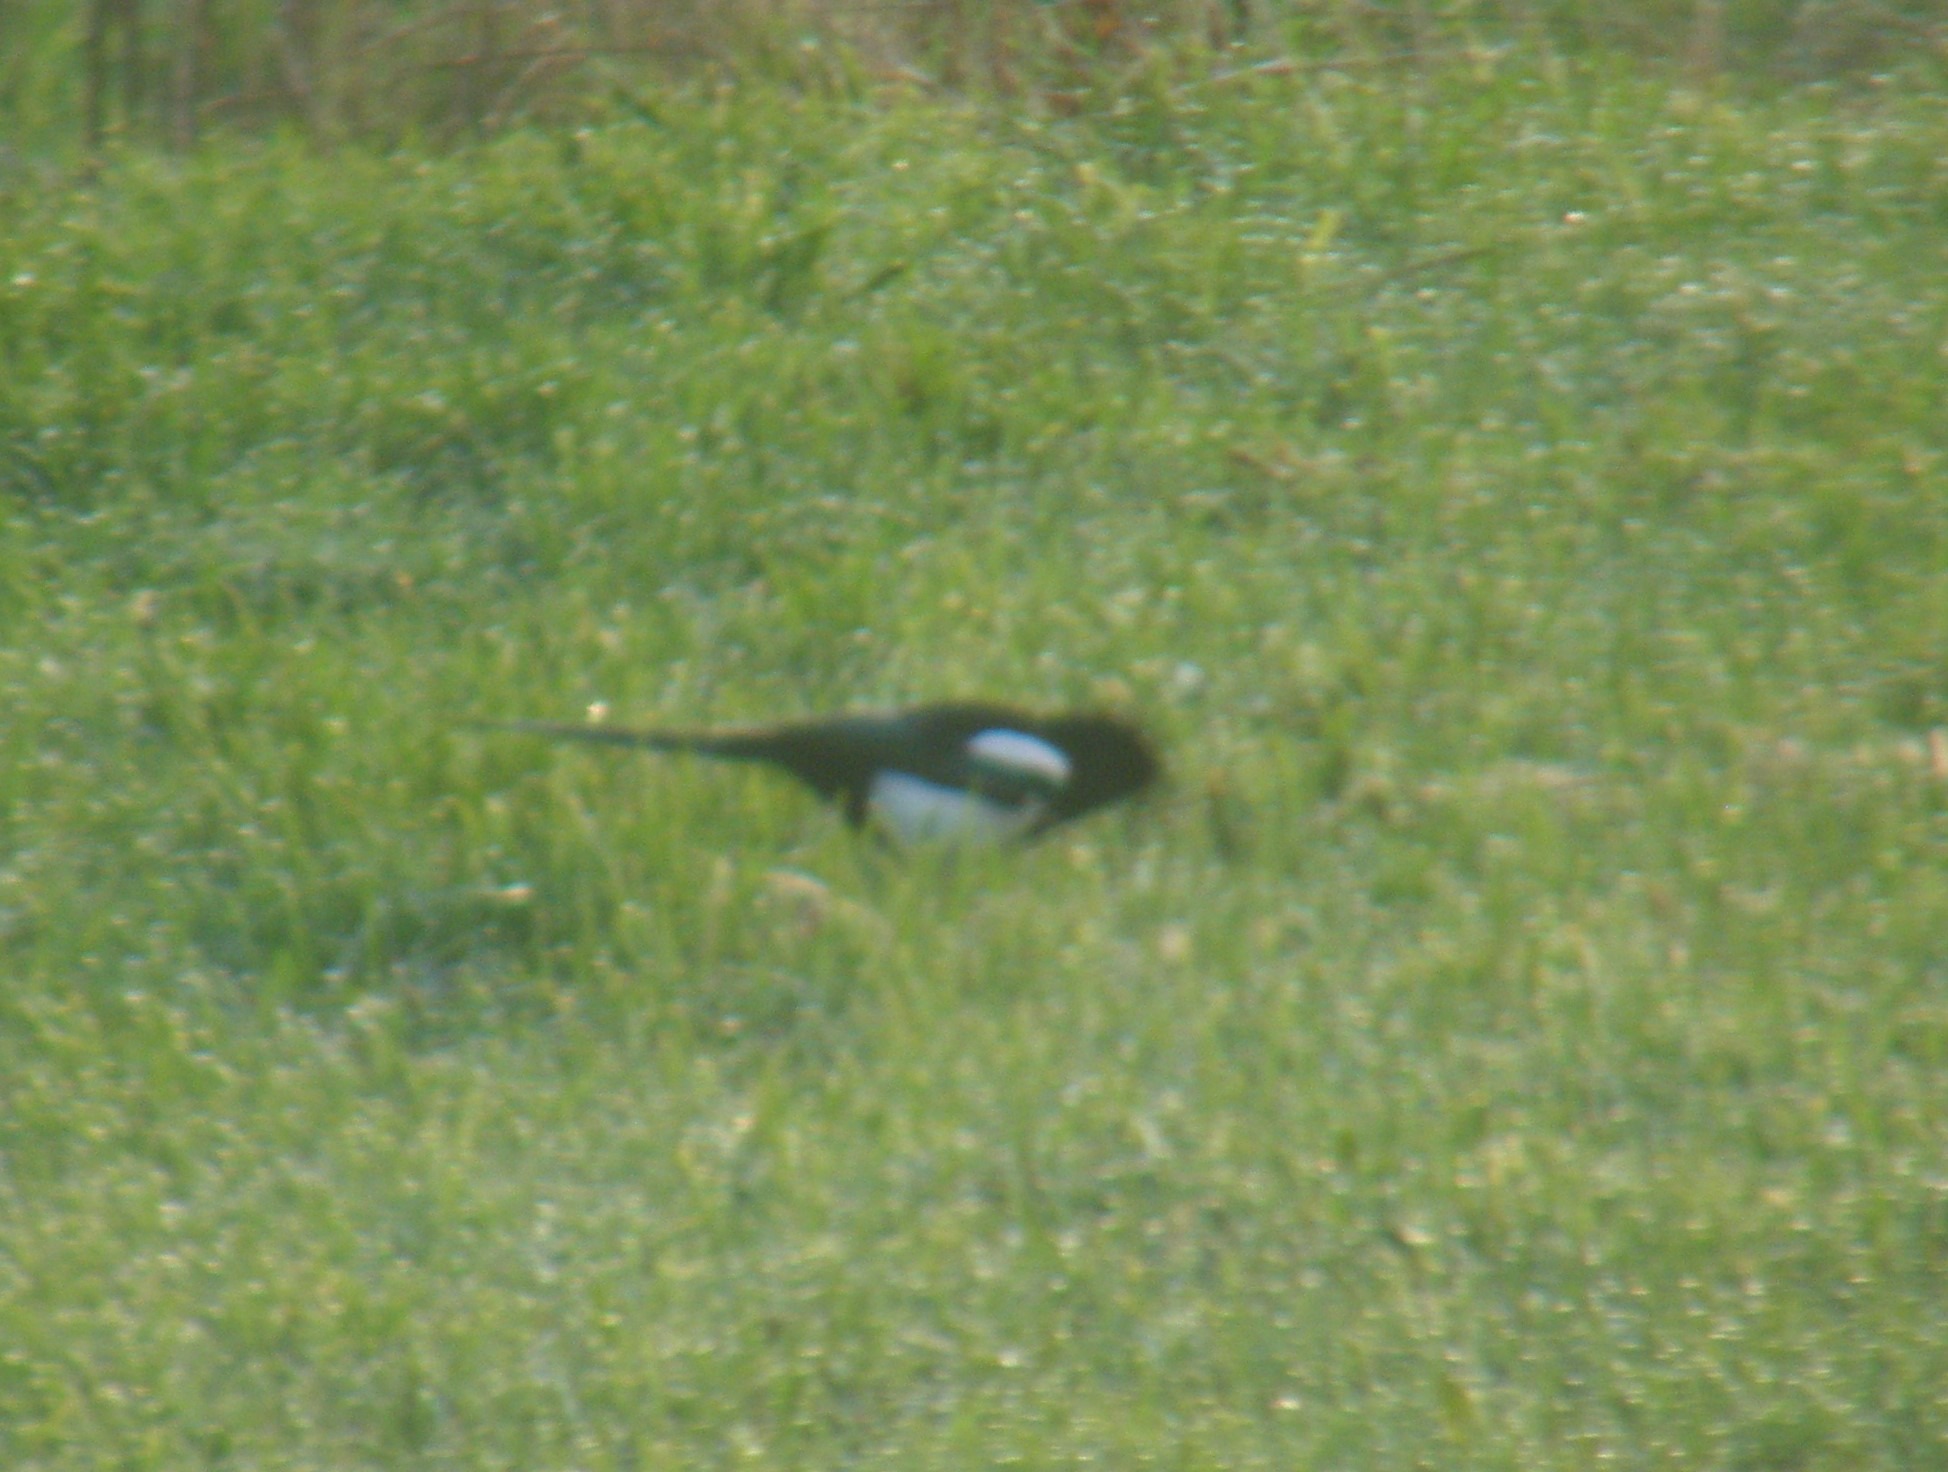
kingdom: Animalia
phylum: Chordata
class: Aves
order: Passeriformes
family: Corvidae
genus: Pica
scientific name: Pica pica
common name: Husskade
